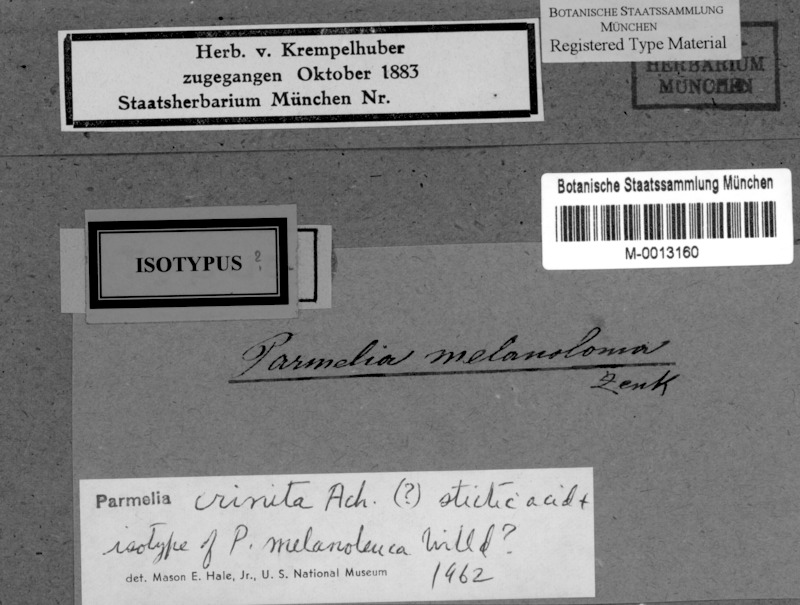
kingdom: Fungi
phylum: Ascomycota
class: Lecanoromycetes
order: Lecanorales
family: Parmeliaceae
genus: Parmotrema
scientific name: Parmotrema crinitum
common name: Salted ruffle lichen
